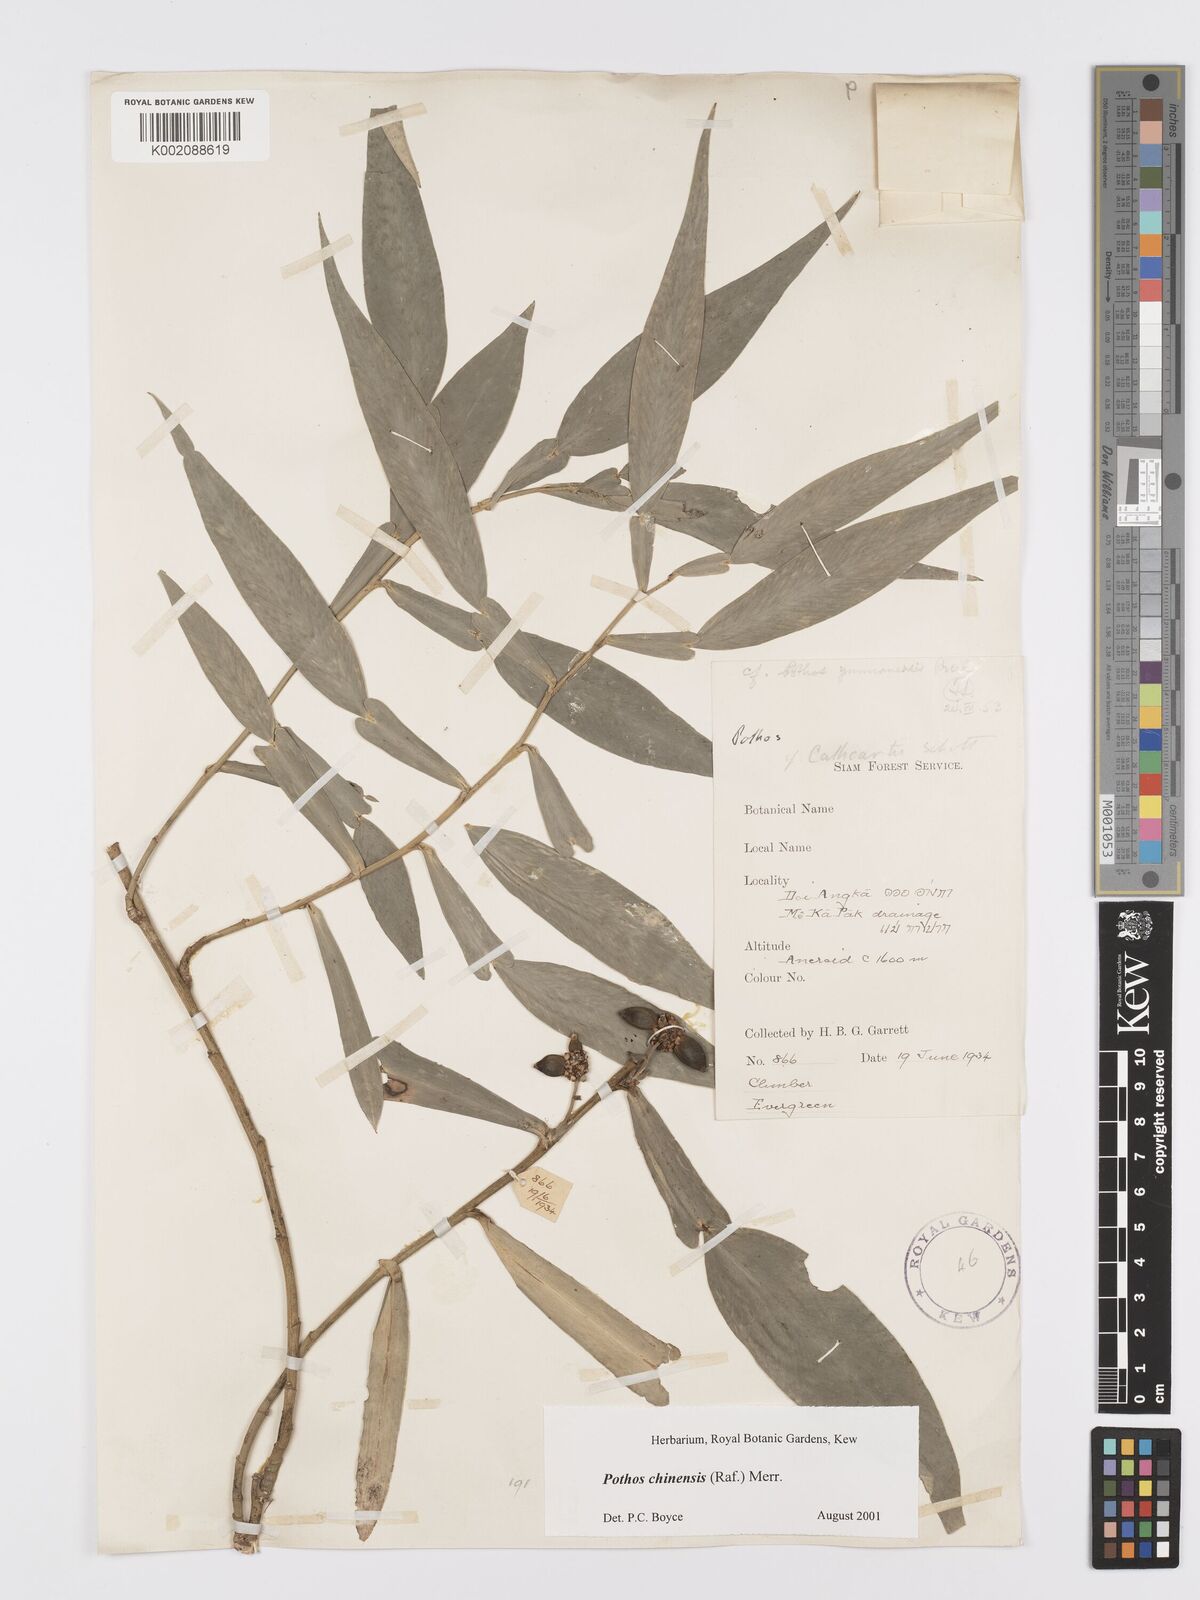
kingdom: Plantae
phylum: Tracheophyta
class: Liliopsida
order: Alismatales
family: Araceae
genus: Pothos
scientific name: Pothos chinensis
